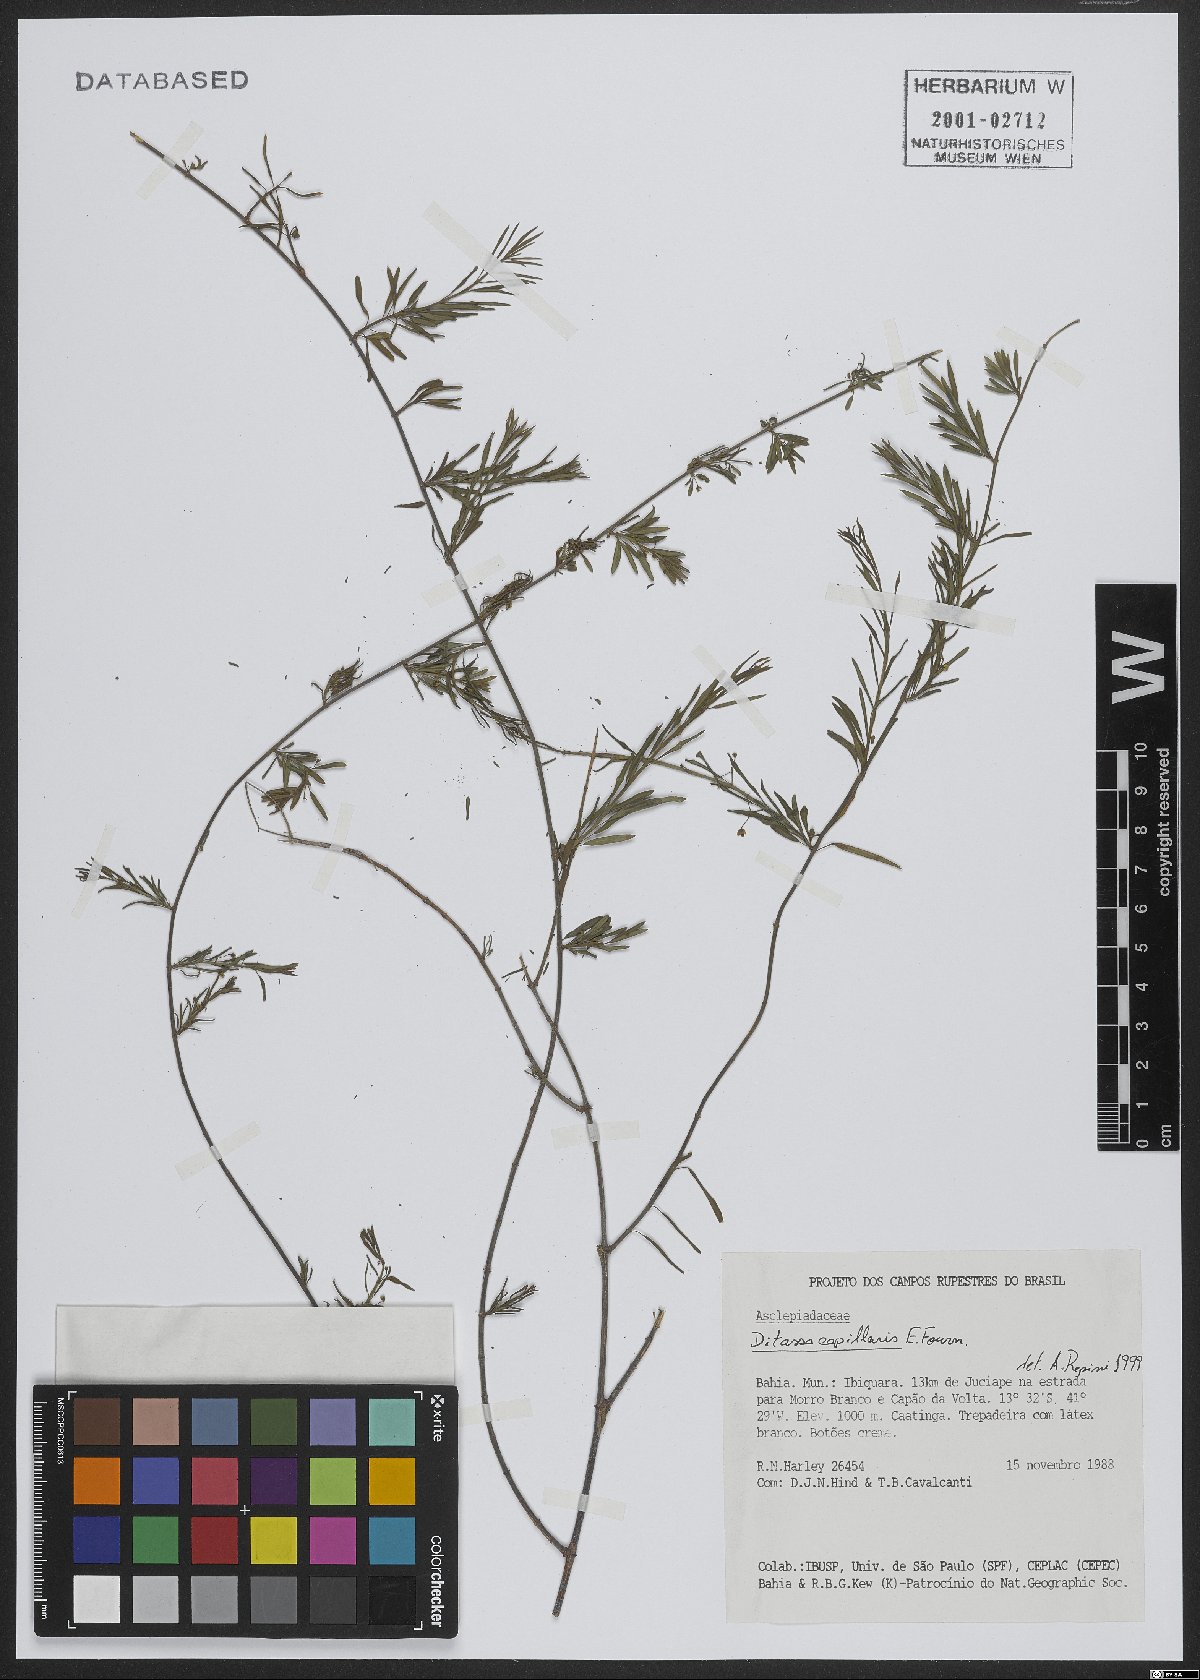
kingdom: Plantae
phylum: Tracheophyta
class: Magnoliopsida
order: Gentianales
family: Apocynaceae
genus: Ditassa
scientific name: Ditassa capillaris
